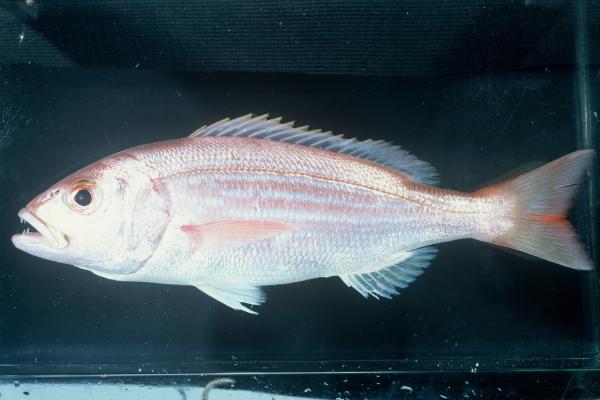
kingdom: Animalia
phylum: Chordata
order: Perciformes
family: Sparidae
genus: Argyrozona
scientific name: Argyrozona argyrozona
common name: Carpenter
